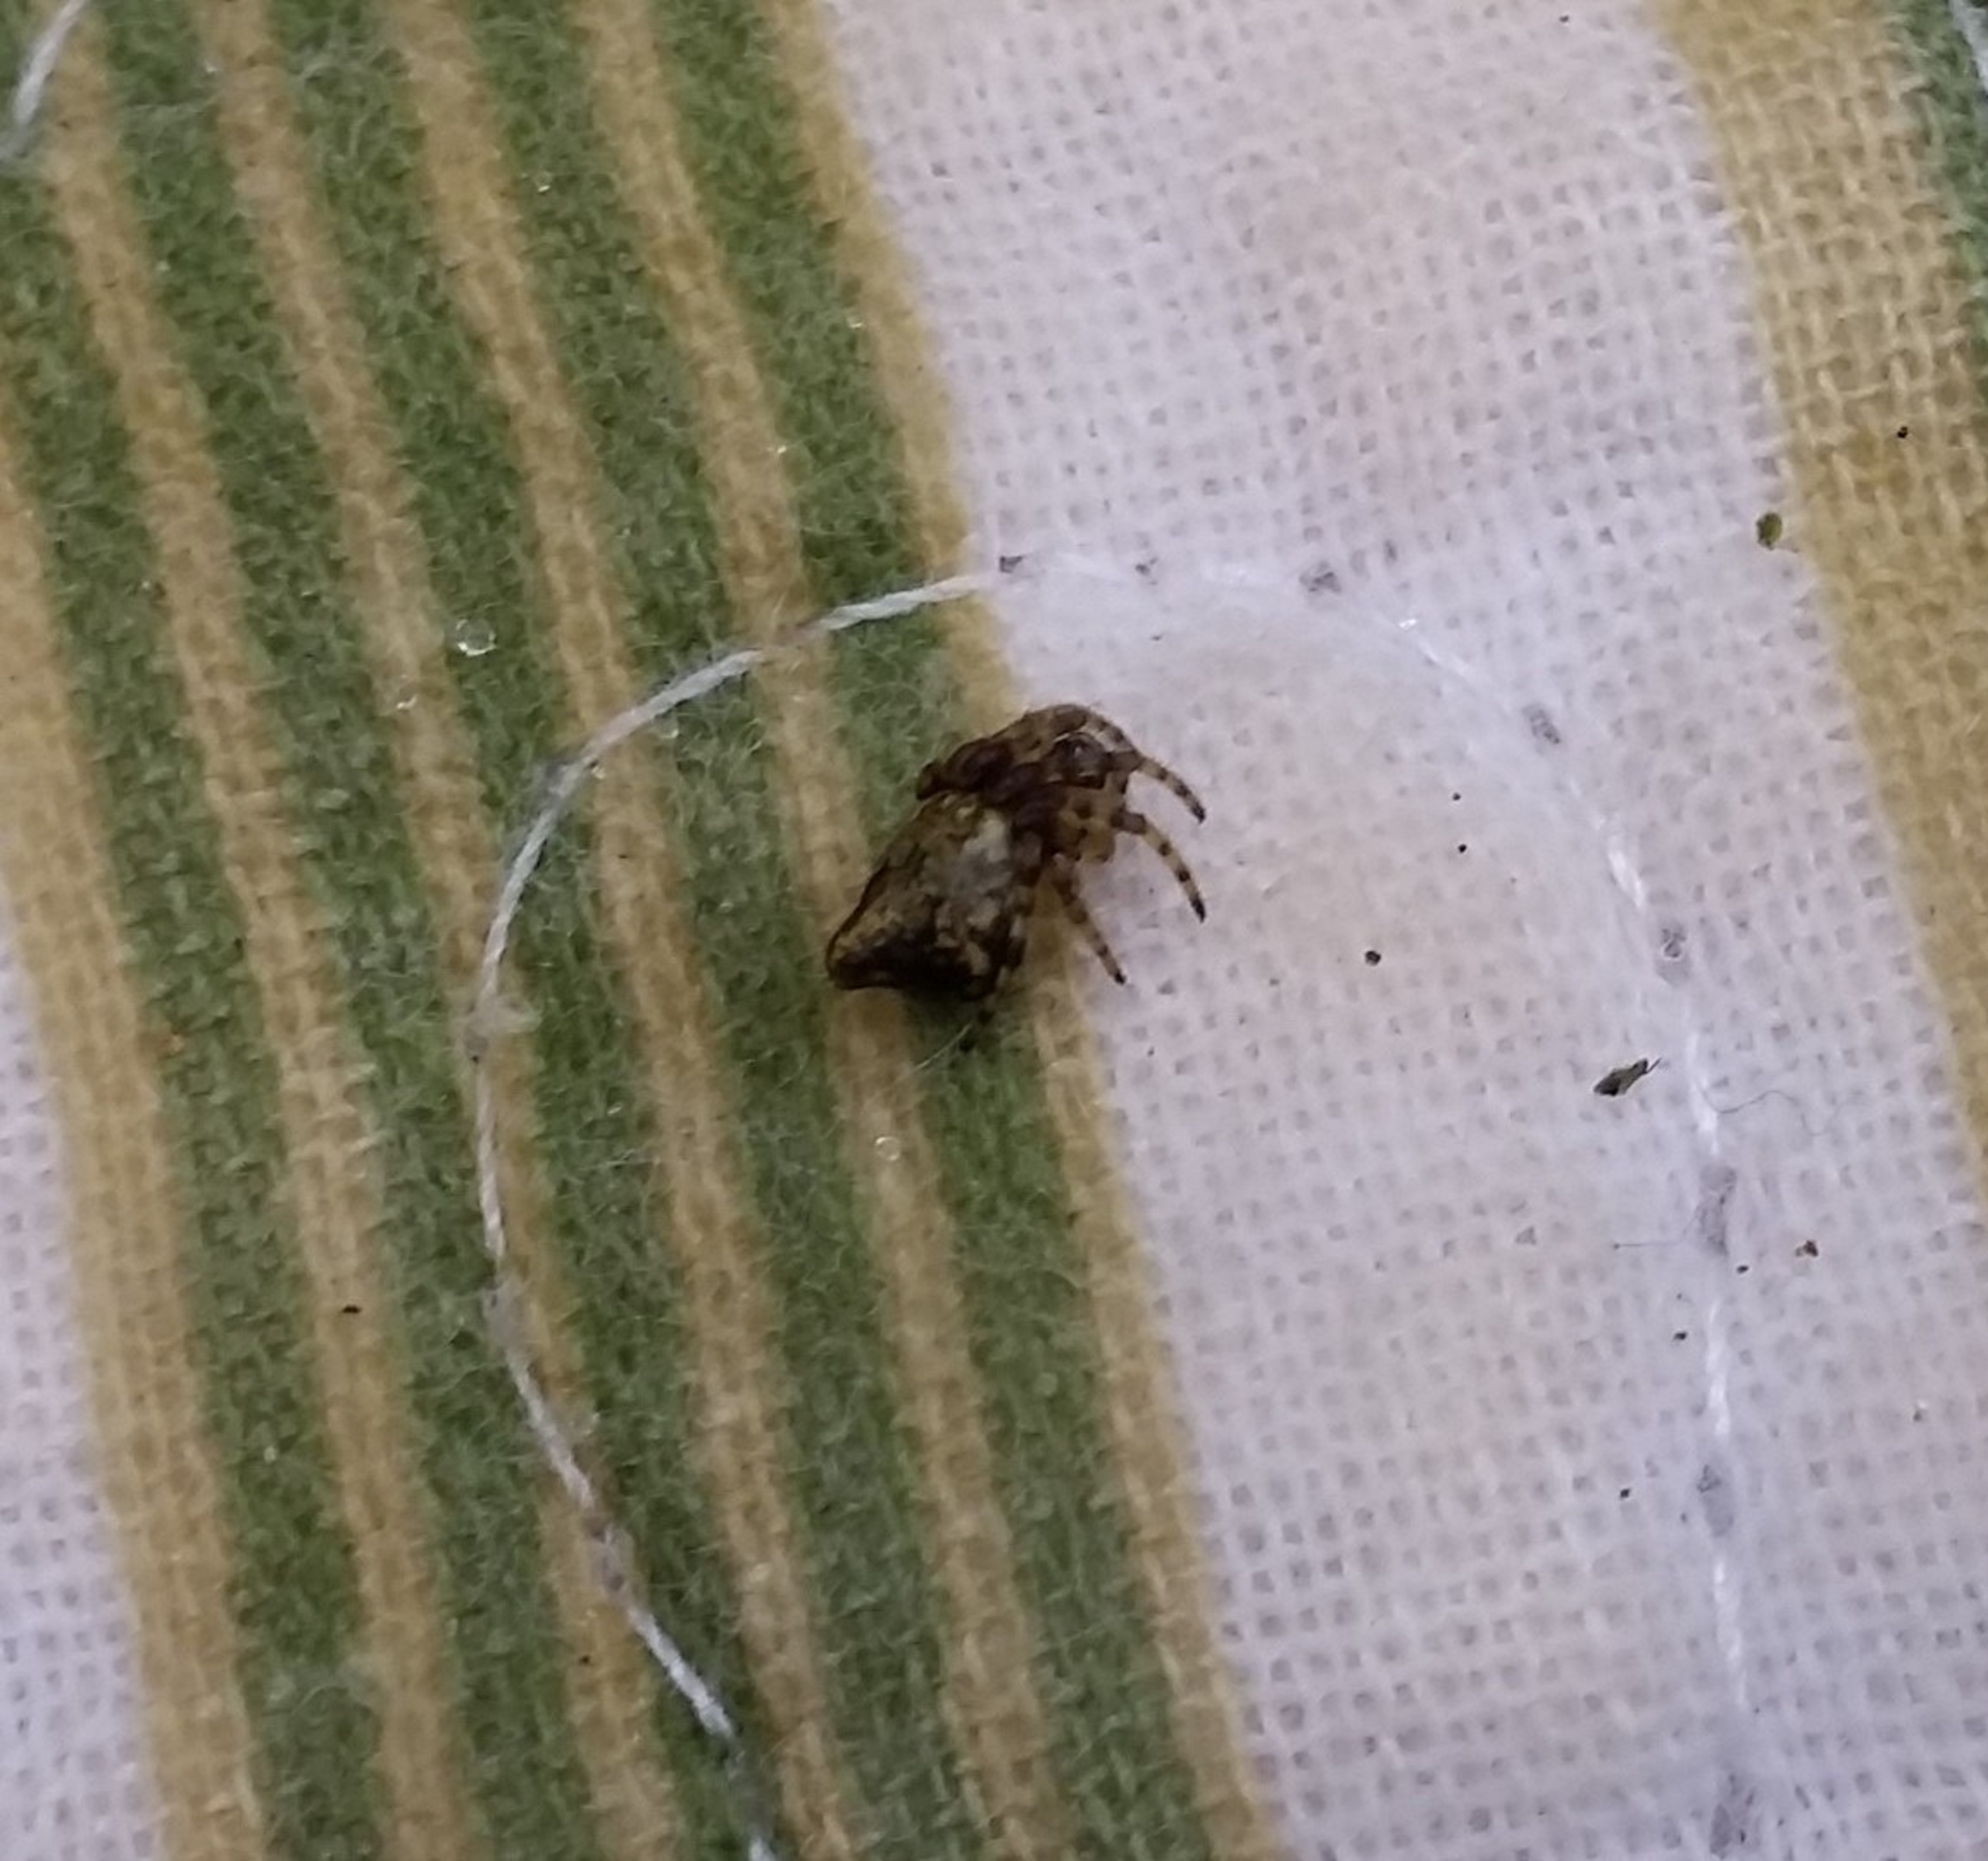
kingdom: Animalia
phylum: Arthropoda
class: Arachnida
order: Araneae
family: Araneidae
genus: Cyclosa
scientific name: Cyclosa conica
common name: Keglerumpe
